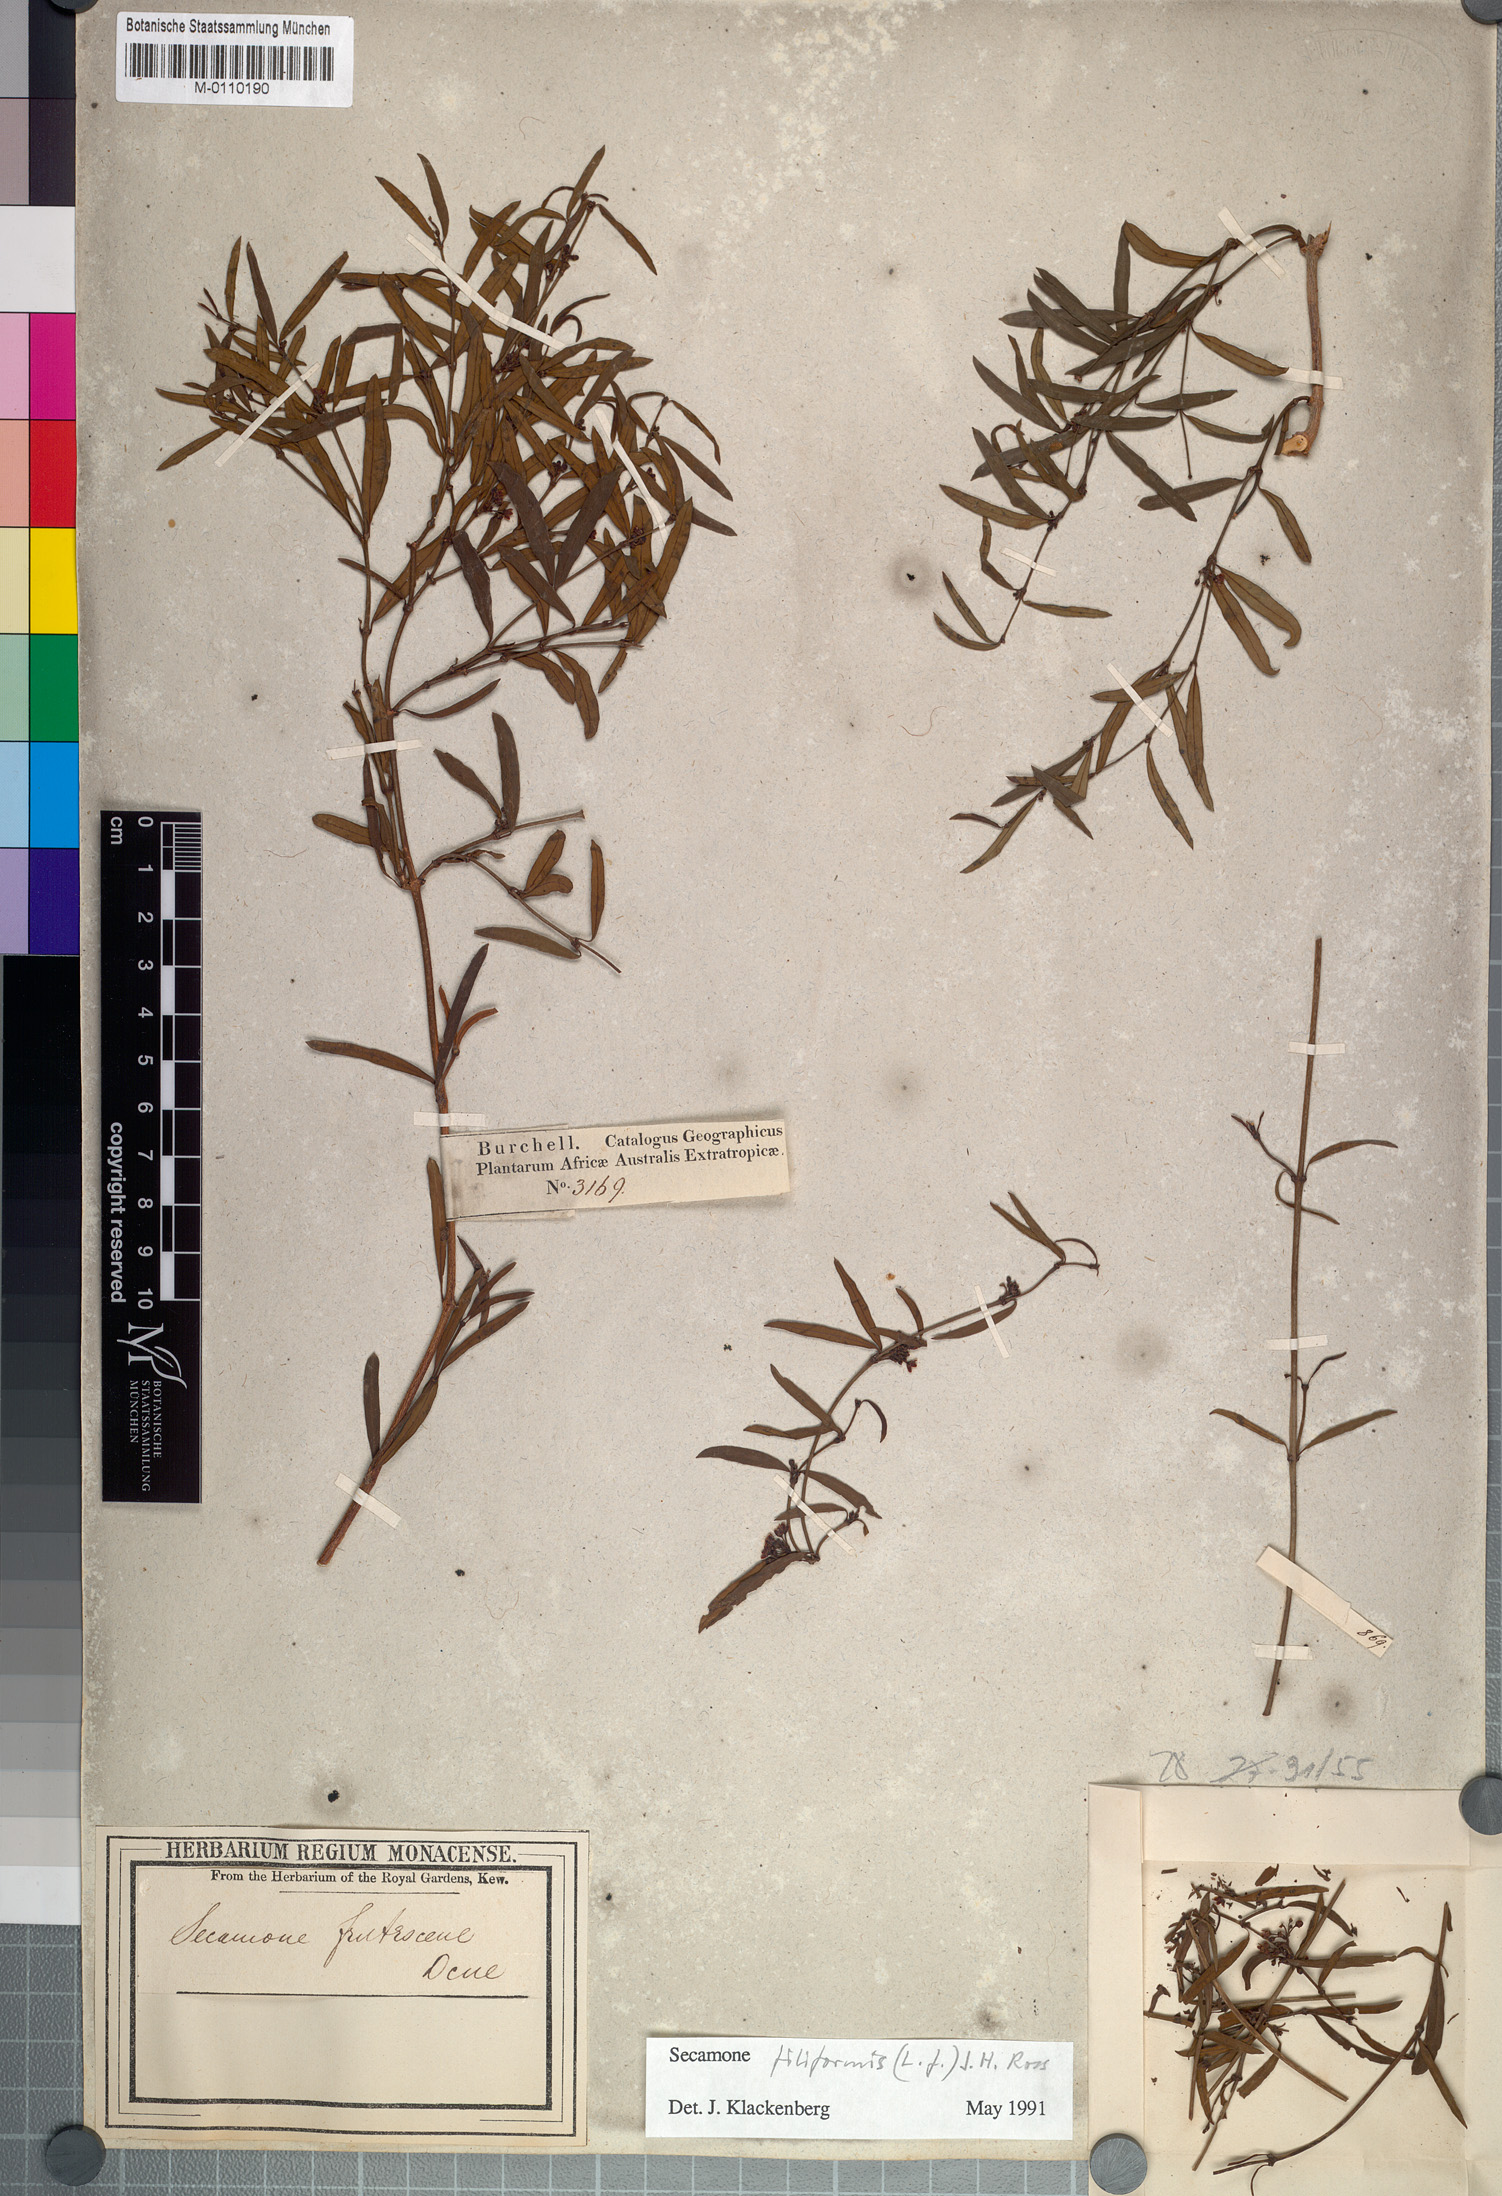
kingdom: Plantae
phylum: Tracheophyta
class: Magnoliopsida
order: Gentianales
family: Apocynaceae
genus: Secamone
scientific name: Secamone filiformis
